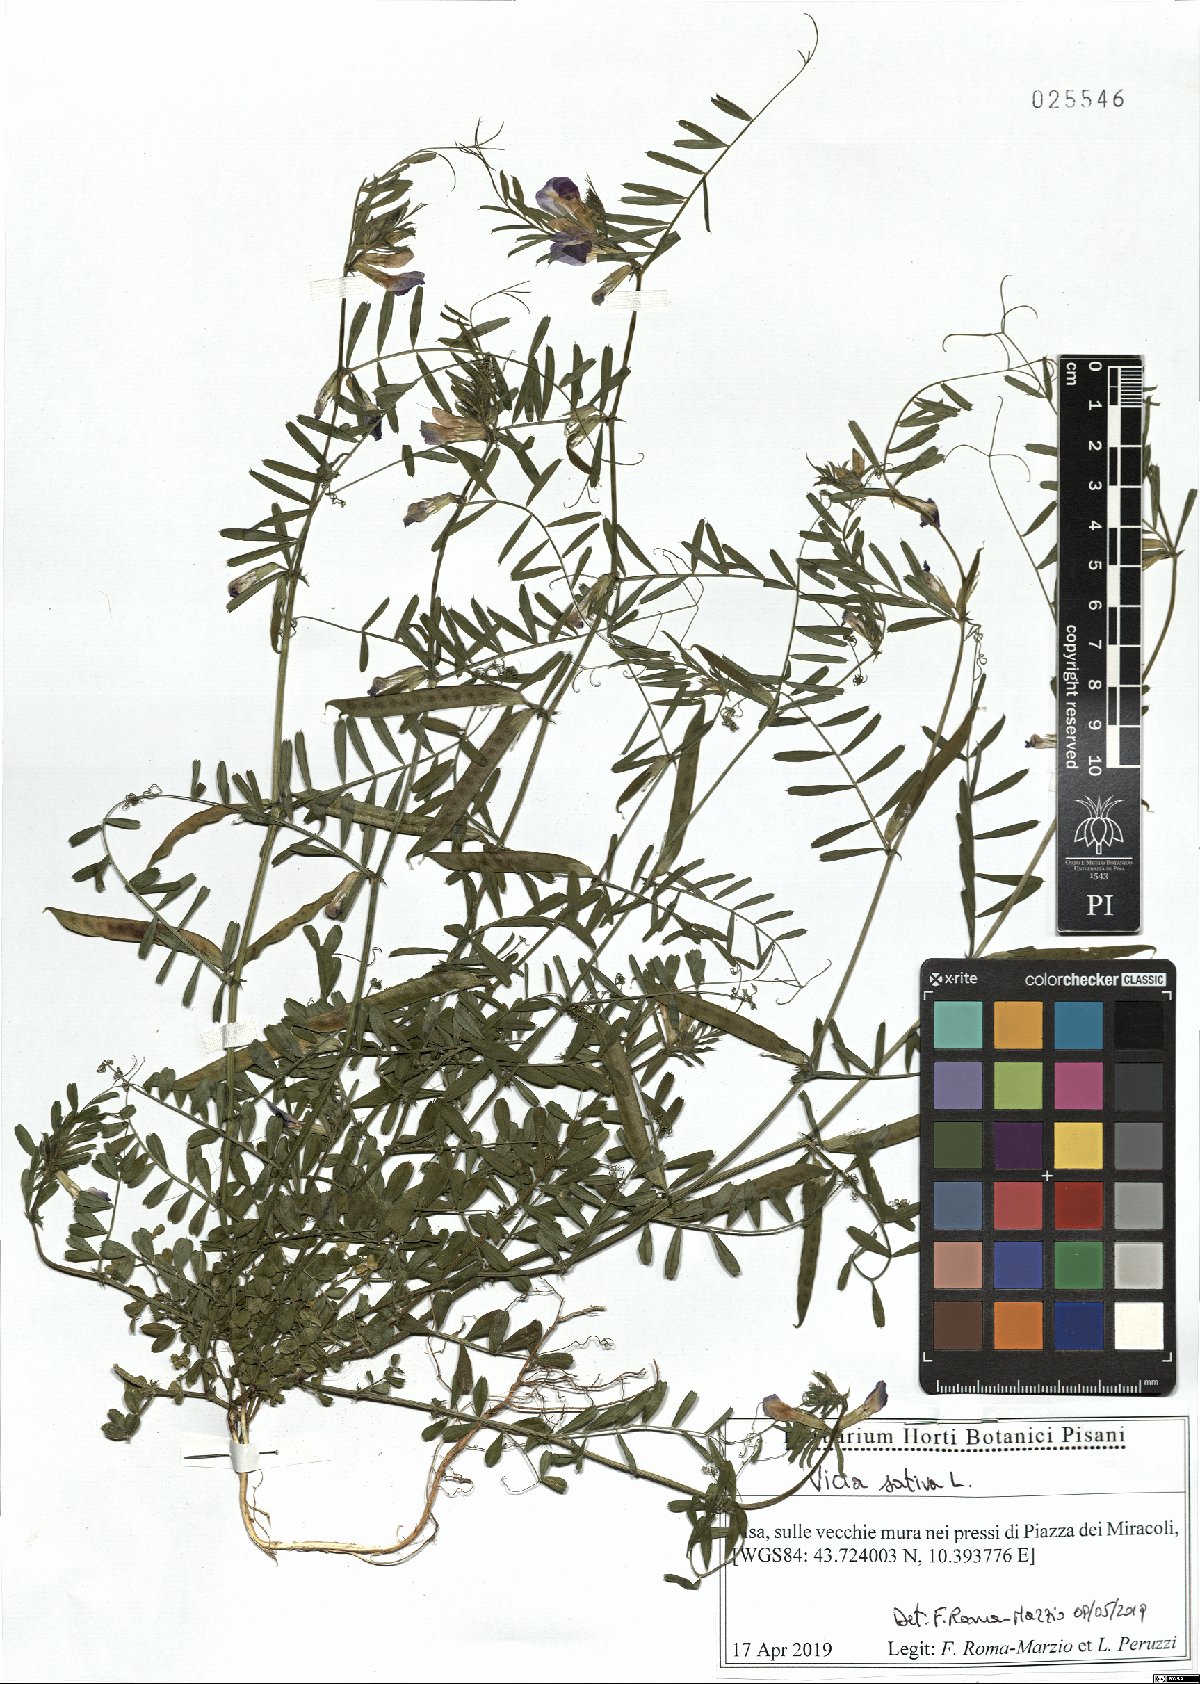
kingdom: Plantae
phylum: Tracheophyta
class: Magnoliopsida
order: Fabales
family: Fabaceae
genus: Vicia
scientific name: Vicia sativa
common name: Garden vetch
